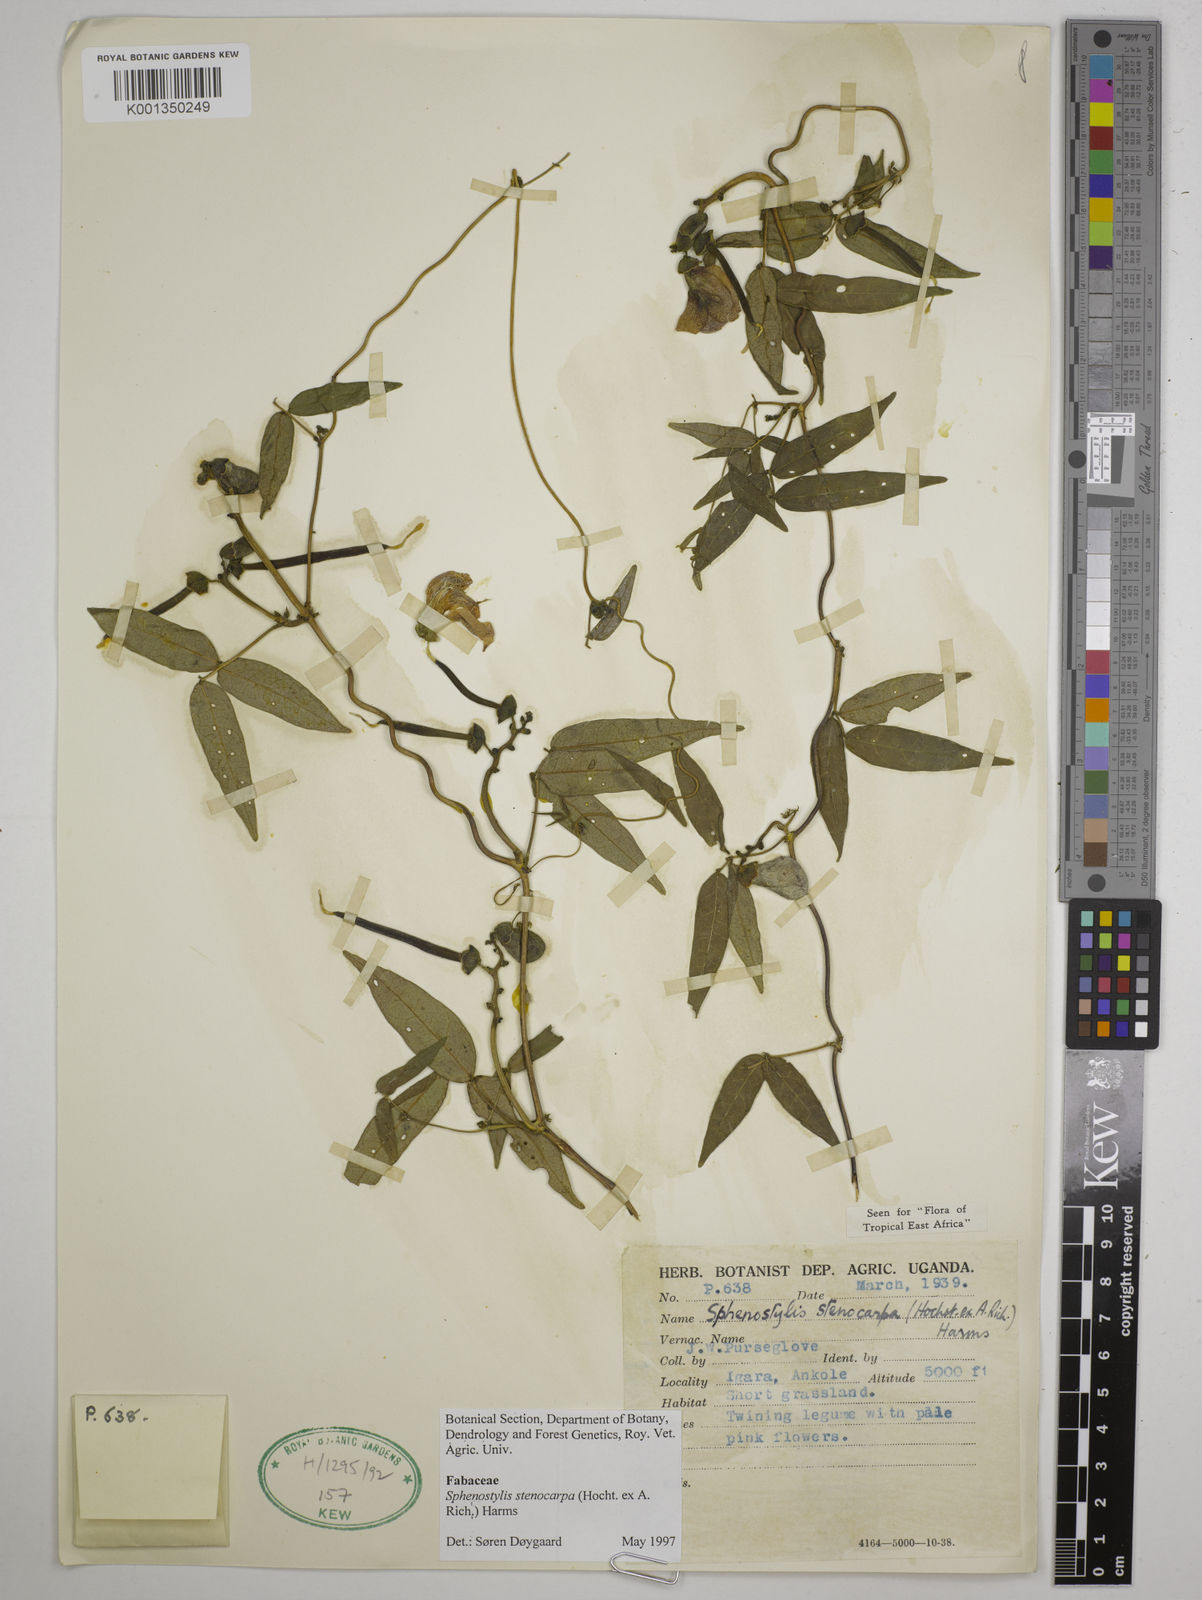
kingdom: Plantae
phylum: Tracheophyta
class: Magnoliopsida
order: Fabales
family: Fabaceae
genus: Sphenostylis
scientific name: Sphenostylis stenocarpa
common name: Yam-pea
